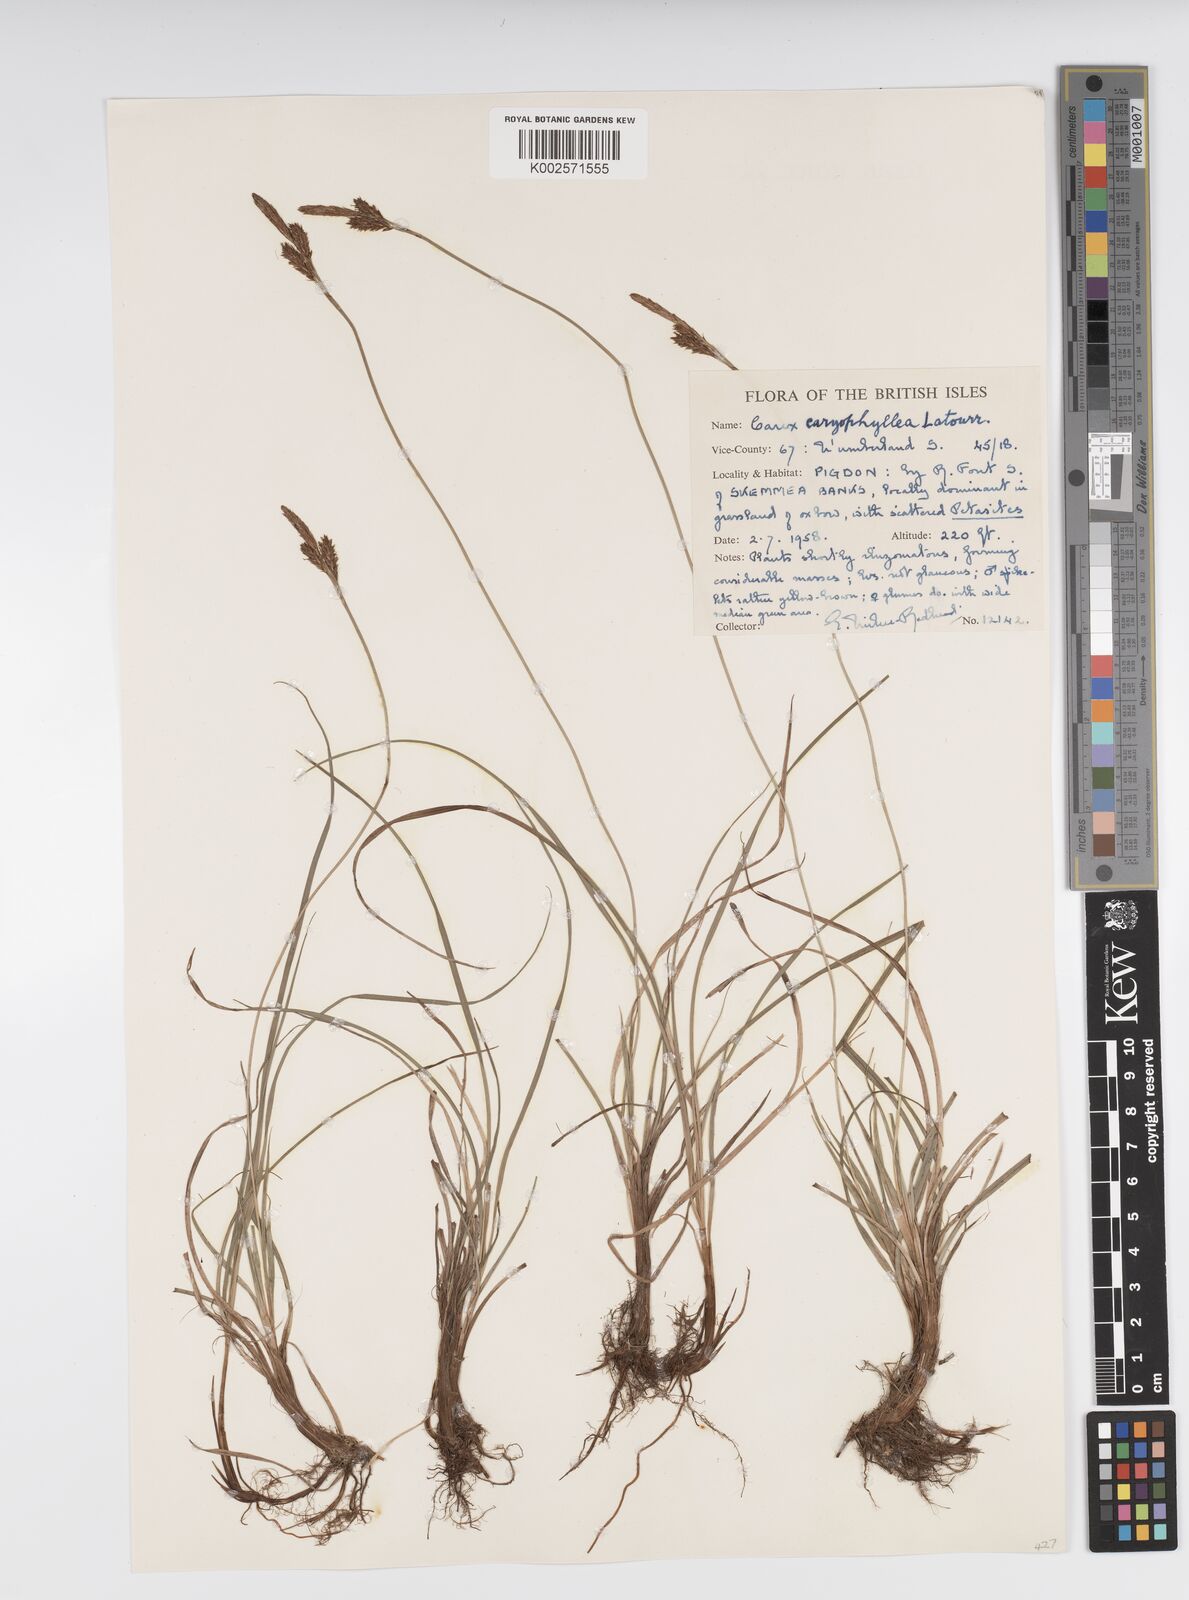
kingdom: Plantae
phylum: Tracheophyta
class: Liliopsida
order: Poales
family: Cyperaceae
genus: Carex
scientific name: Carex caryophyllea
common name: Spring sedge
